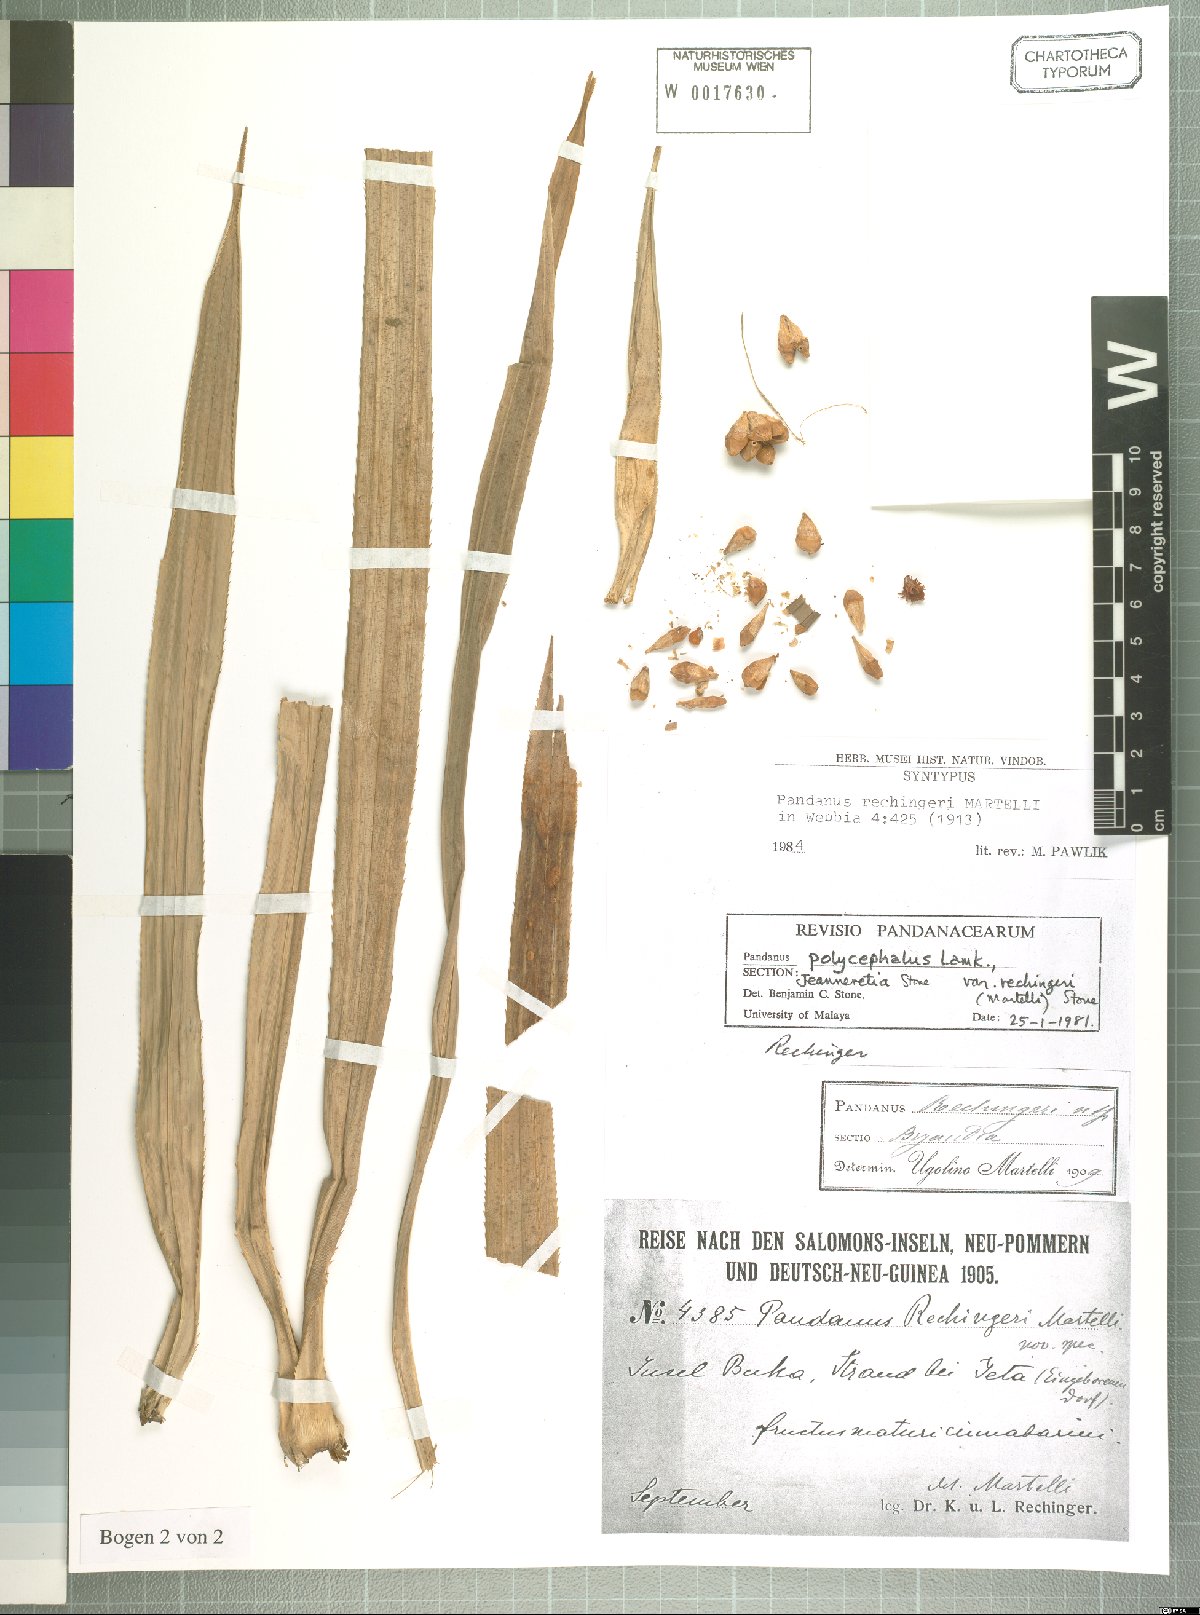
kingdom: Plantae
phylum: Tracheophyta
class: Liliopsida
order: Pandanales
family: Pandanaceae
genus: Pandanus
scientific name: Pandanus polycephalus
